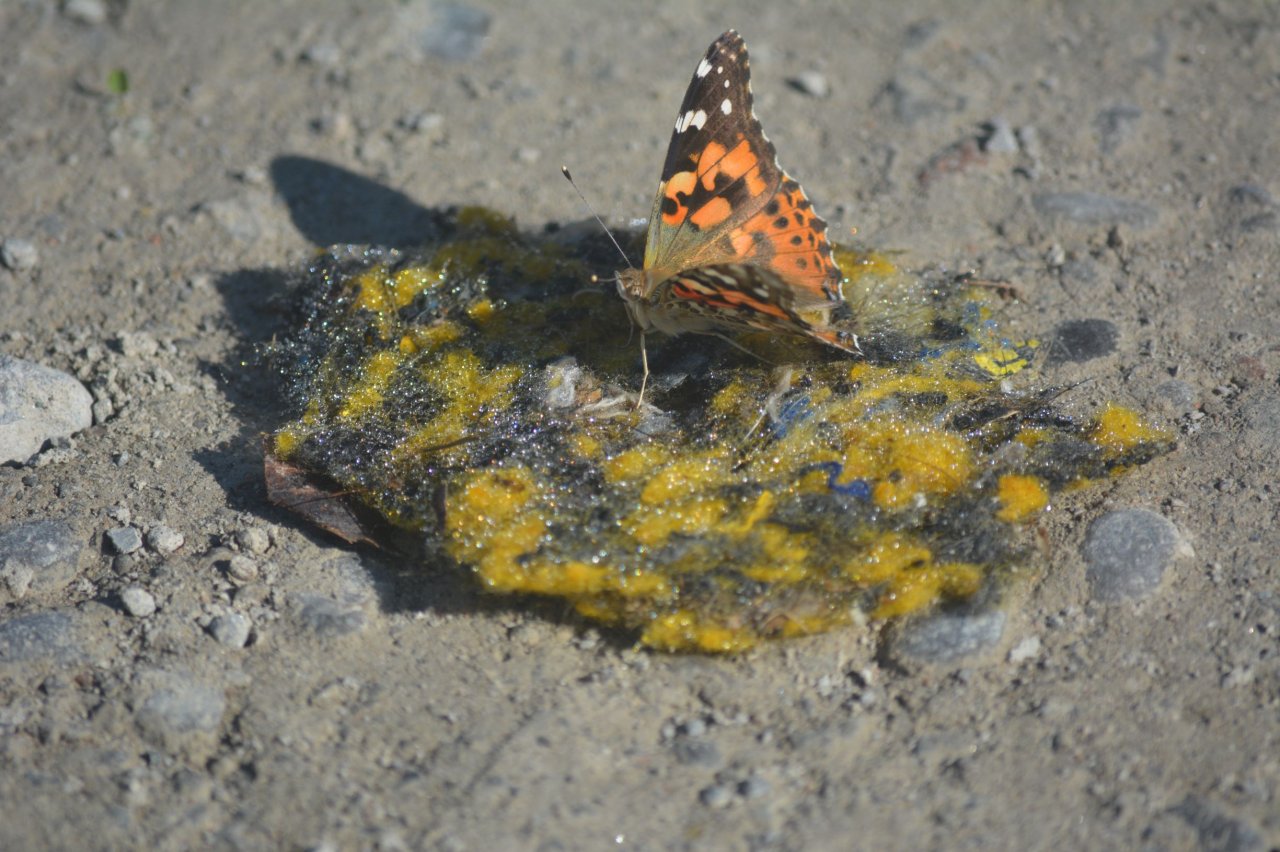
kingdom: Animalia
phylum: Arthropoda
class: Insecta
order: Lepidoptera
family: Nymphalidae
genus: Vanessa
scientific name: Vanessa cardui
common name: Painted Lady
